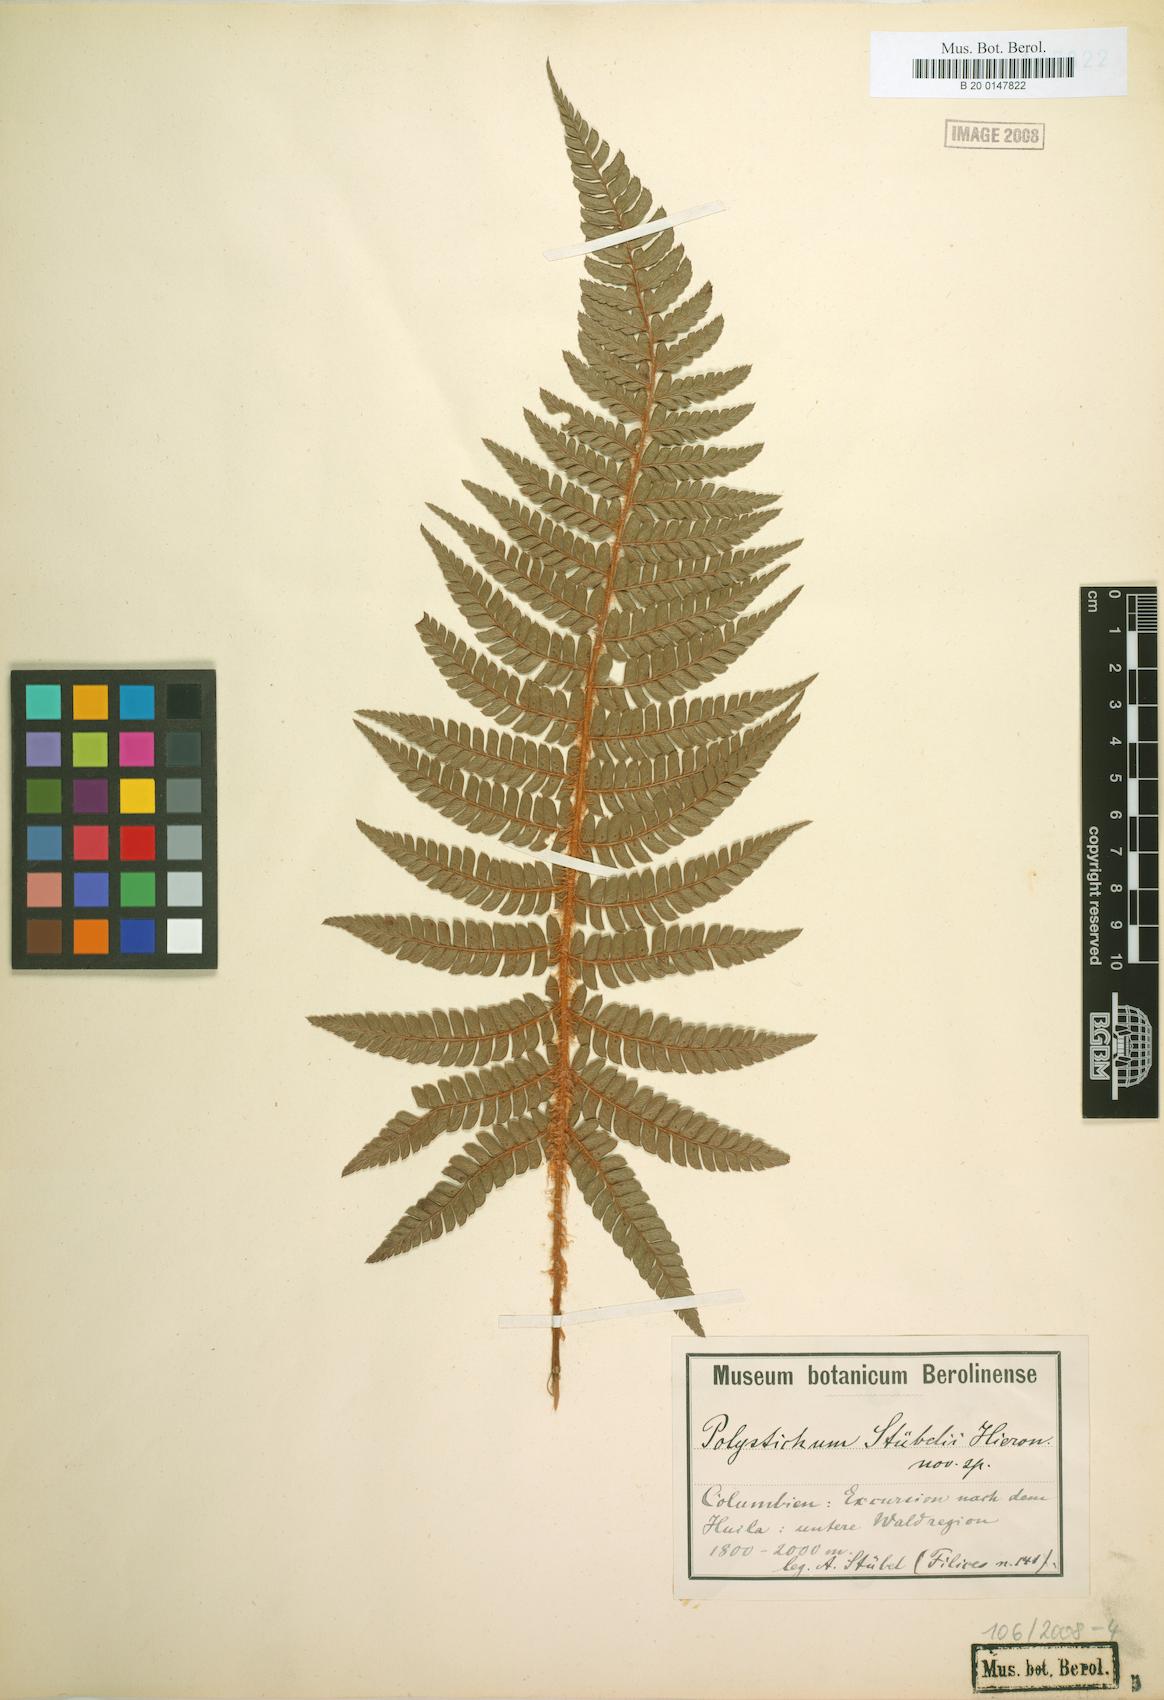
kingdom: Plantae
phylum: Tracheophyta
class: Polypodiopsida
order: Polypodiales
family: Dryopteridaceae
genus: Polystichum
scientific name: Polystichum stuebelii
